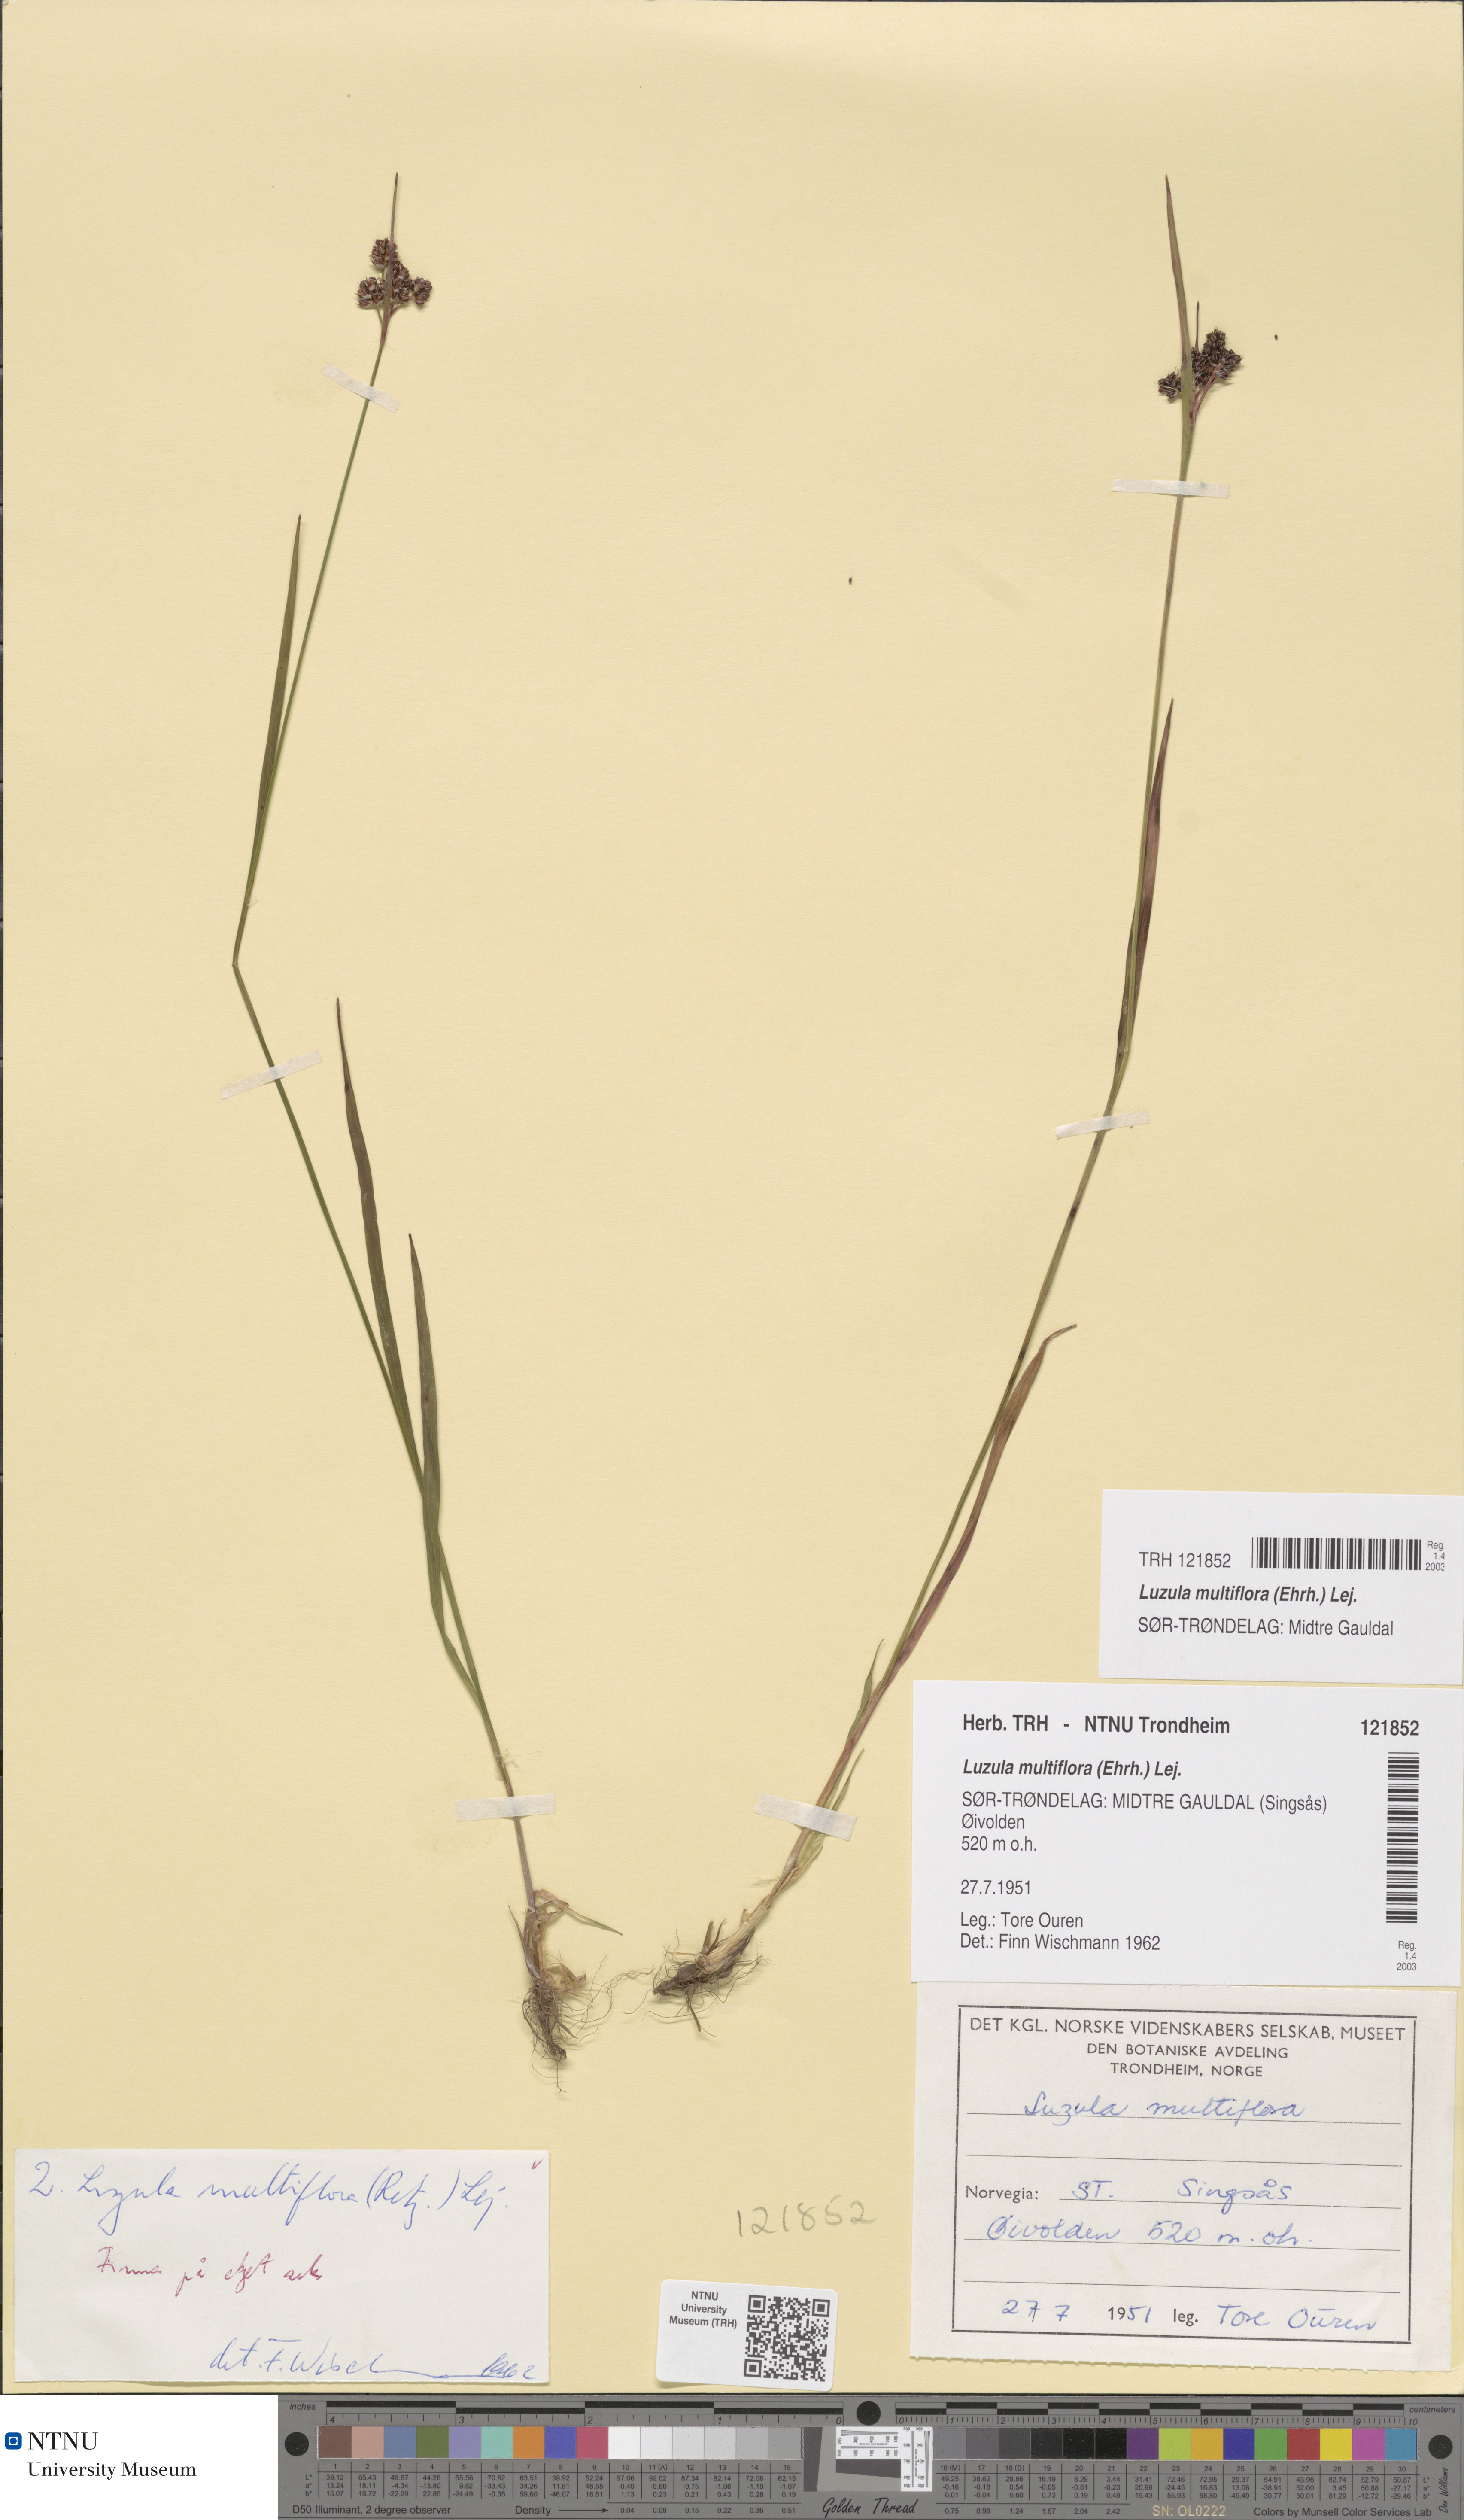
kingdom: Plantae
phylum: Tracheophyta
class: Liliopsida
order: Poales
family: Juncaceae
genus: Luzula
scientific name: Luzula multiflora
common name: Heath wood-rush
